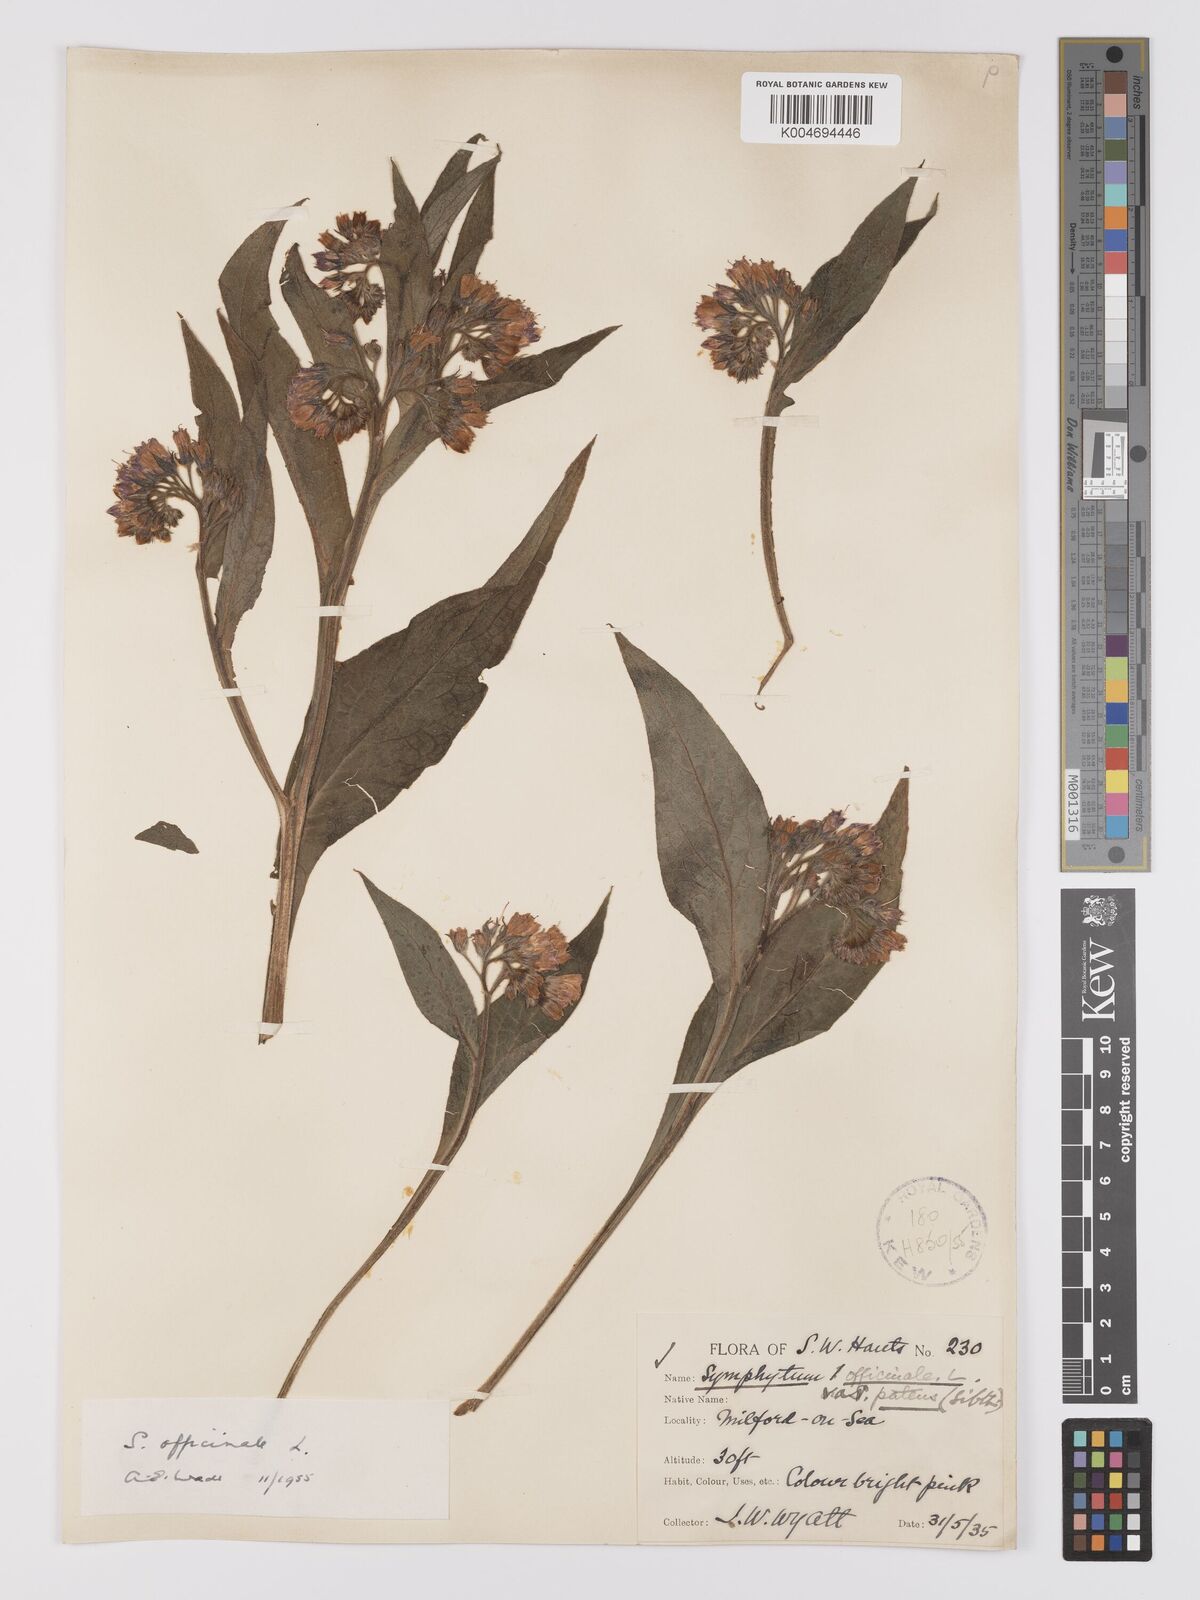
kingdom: Plantae
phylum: Tracheophyta
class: Magnoliopsida
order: Boraginales
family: Boraginaceae
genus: Symphytum
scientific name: Symphytum officinale
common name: Common comfrey
